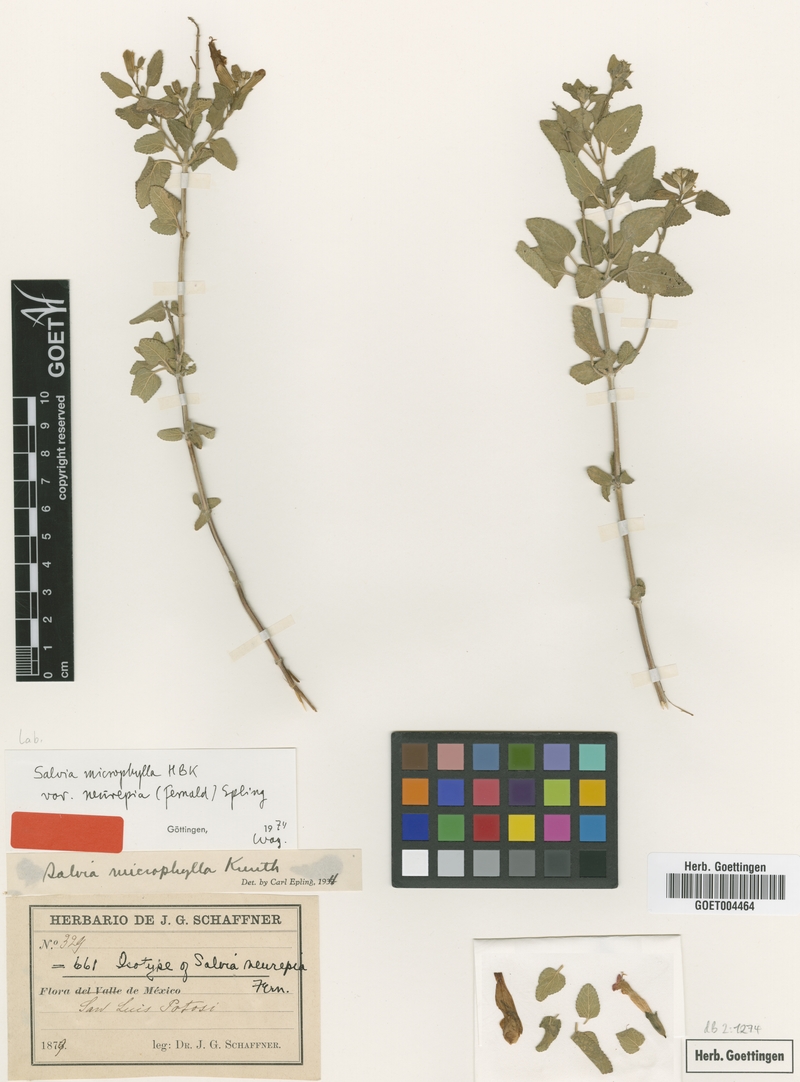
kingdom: Plantae
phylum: Tracheophyta
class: Magnoliopsida
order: Lamiales
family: Lamiaceae
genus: Salvia
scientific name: Salvia microphylla
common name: Baby sage
